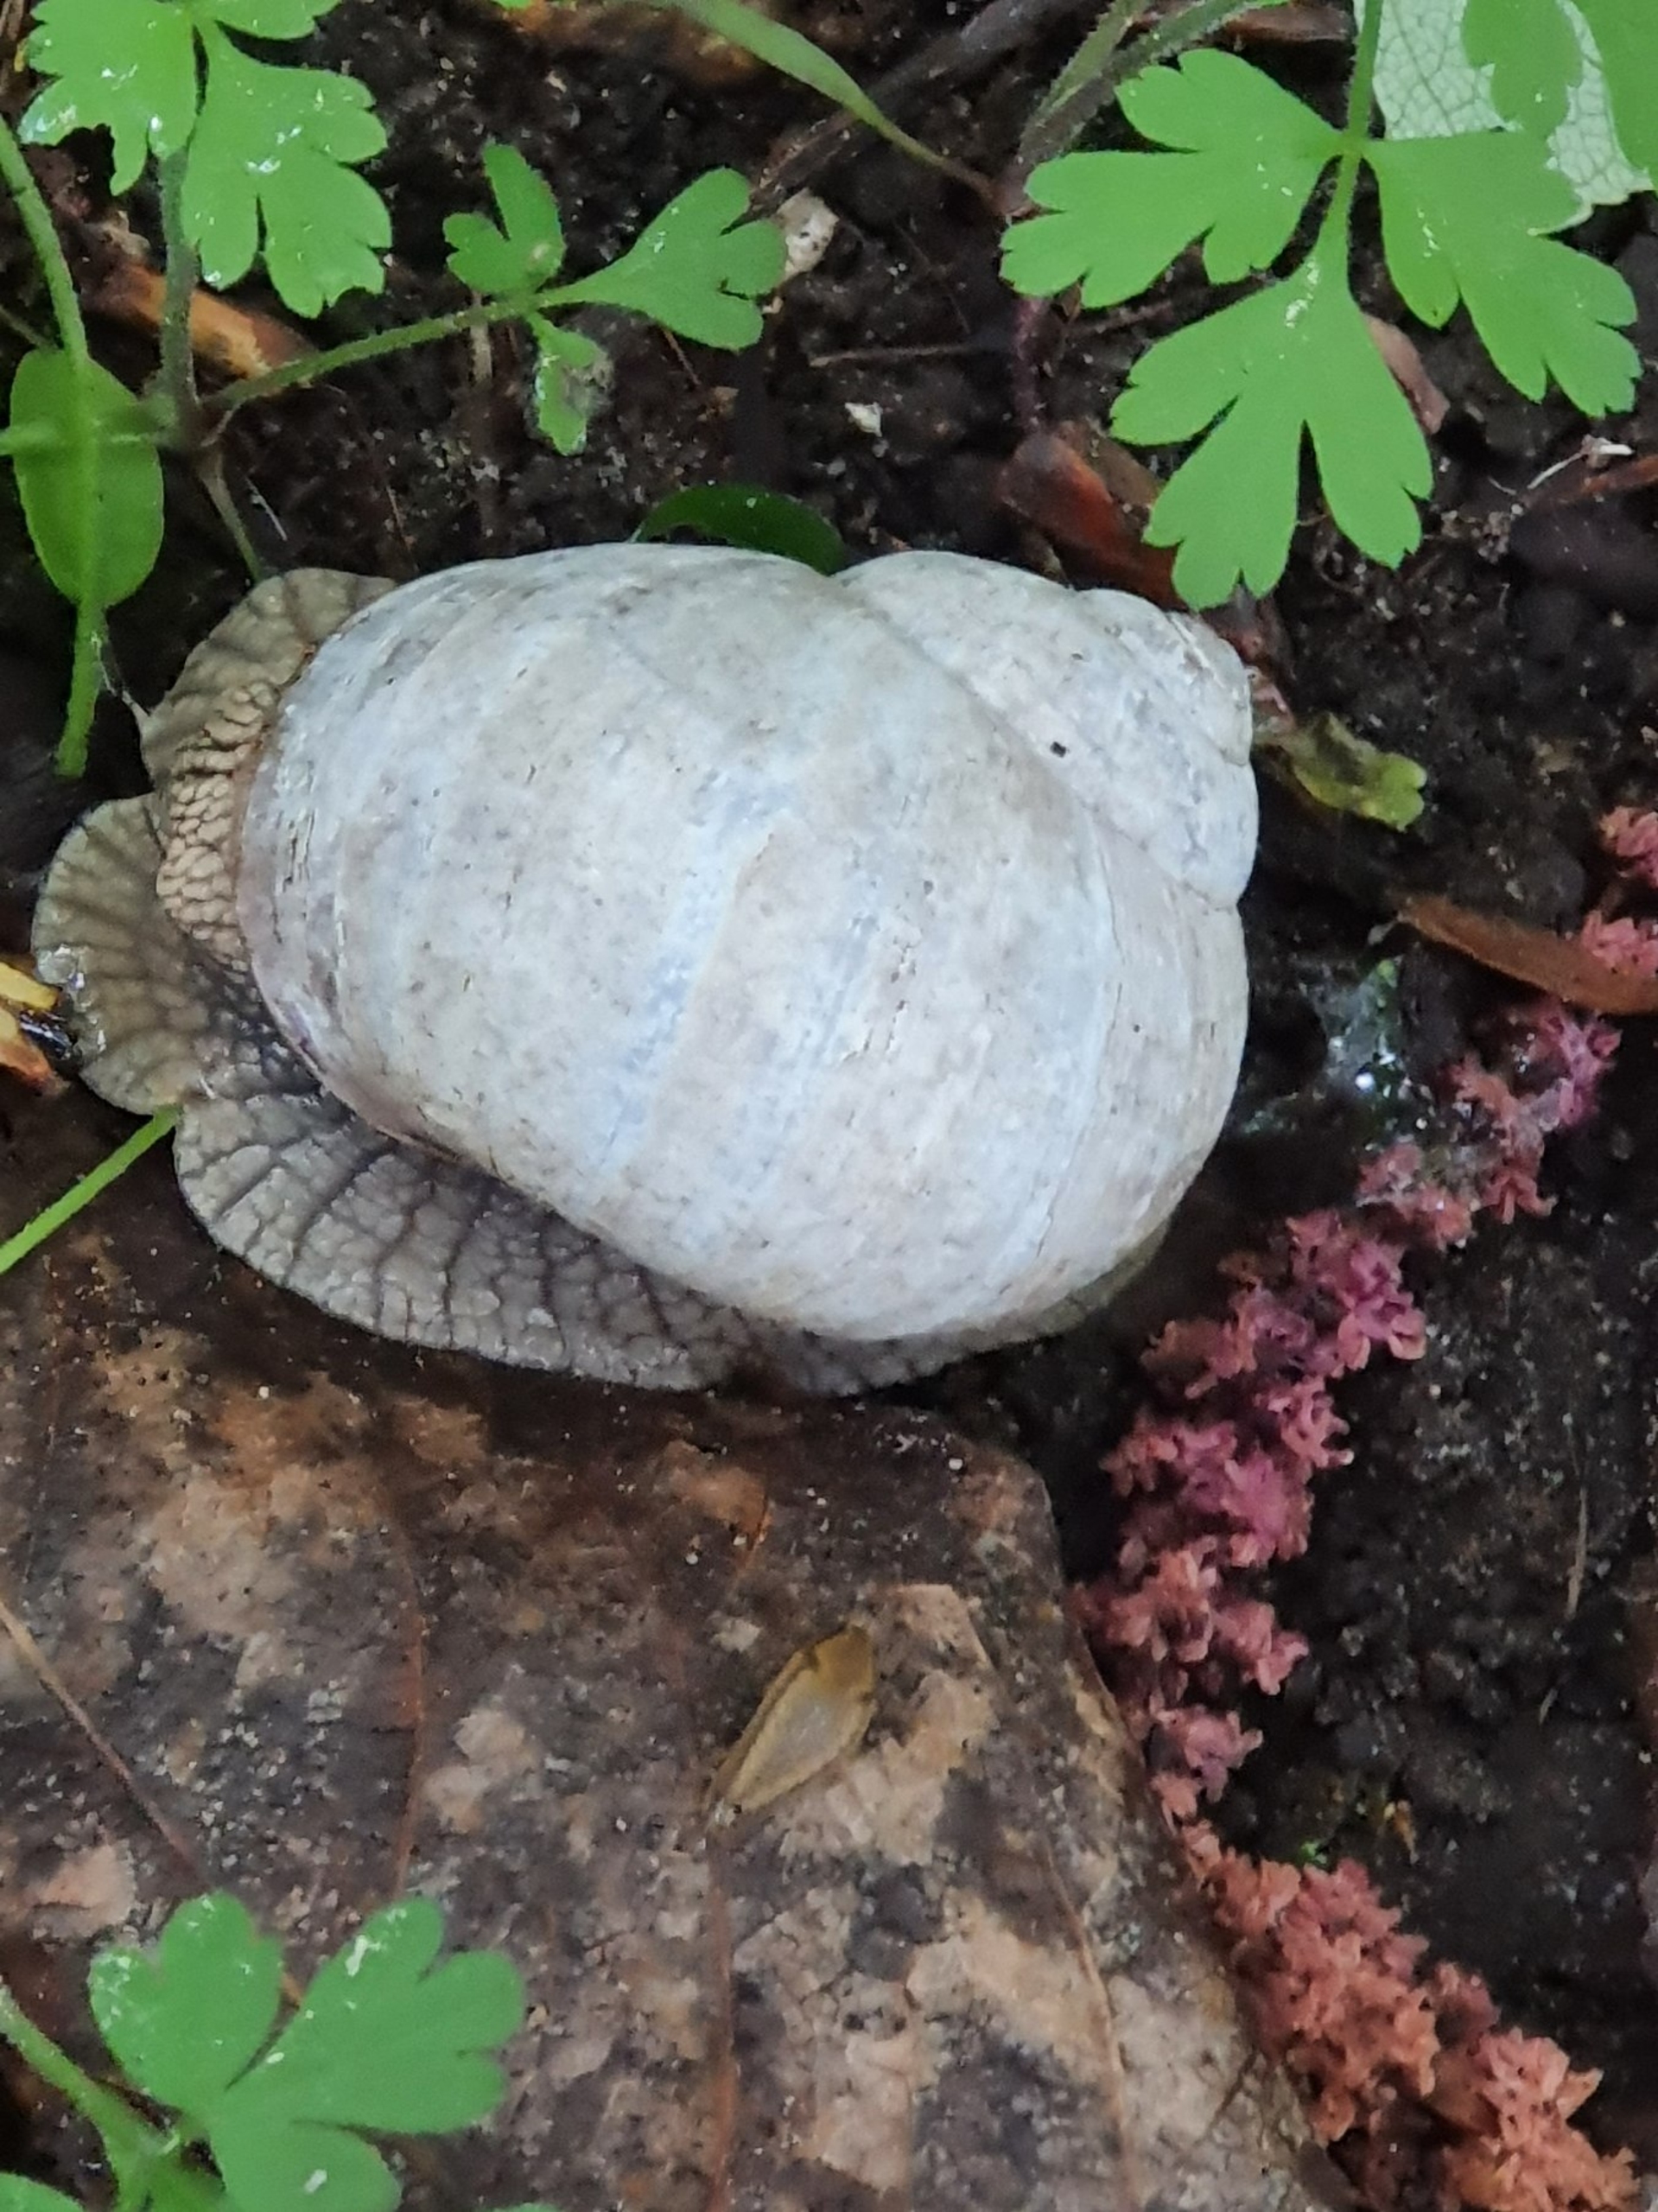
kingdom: Animalia
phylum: Mollusca
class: Gastropoda
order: Stylommatophora
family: Helicidae
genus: Helix
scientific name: Helix pomatia
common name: Vinbjergsnegl
